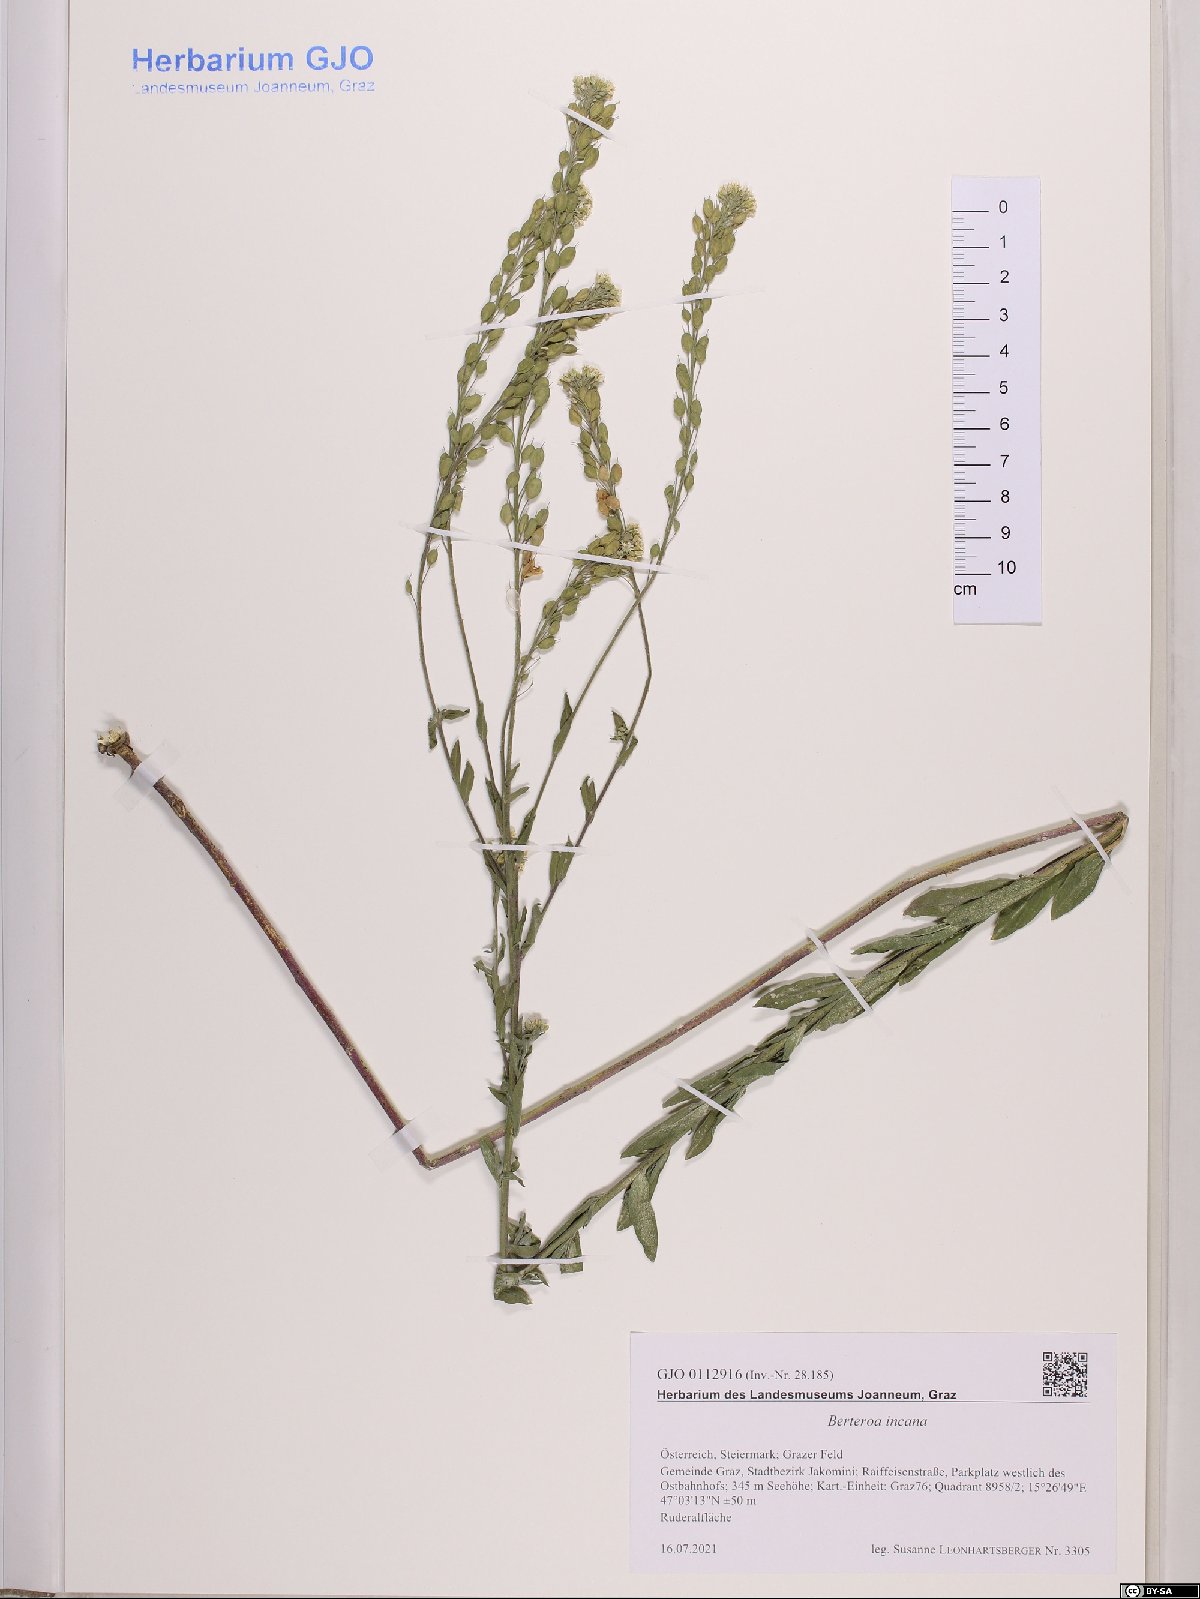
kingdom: Plantae
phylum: Tracheophyta
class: Magnoliopsida
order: Brassicales
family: Brassicaceae
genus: Berteroa
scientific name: Berteroa incana
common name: Hoary alison
